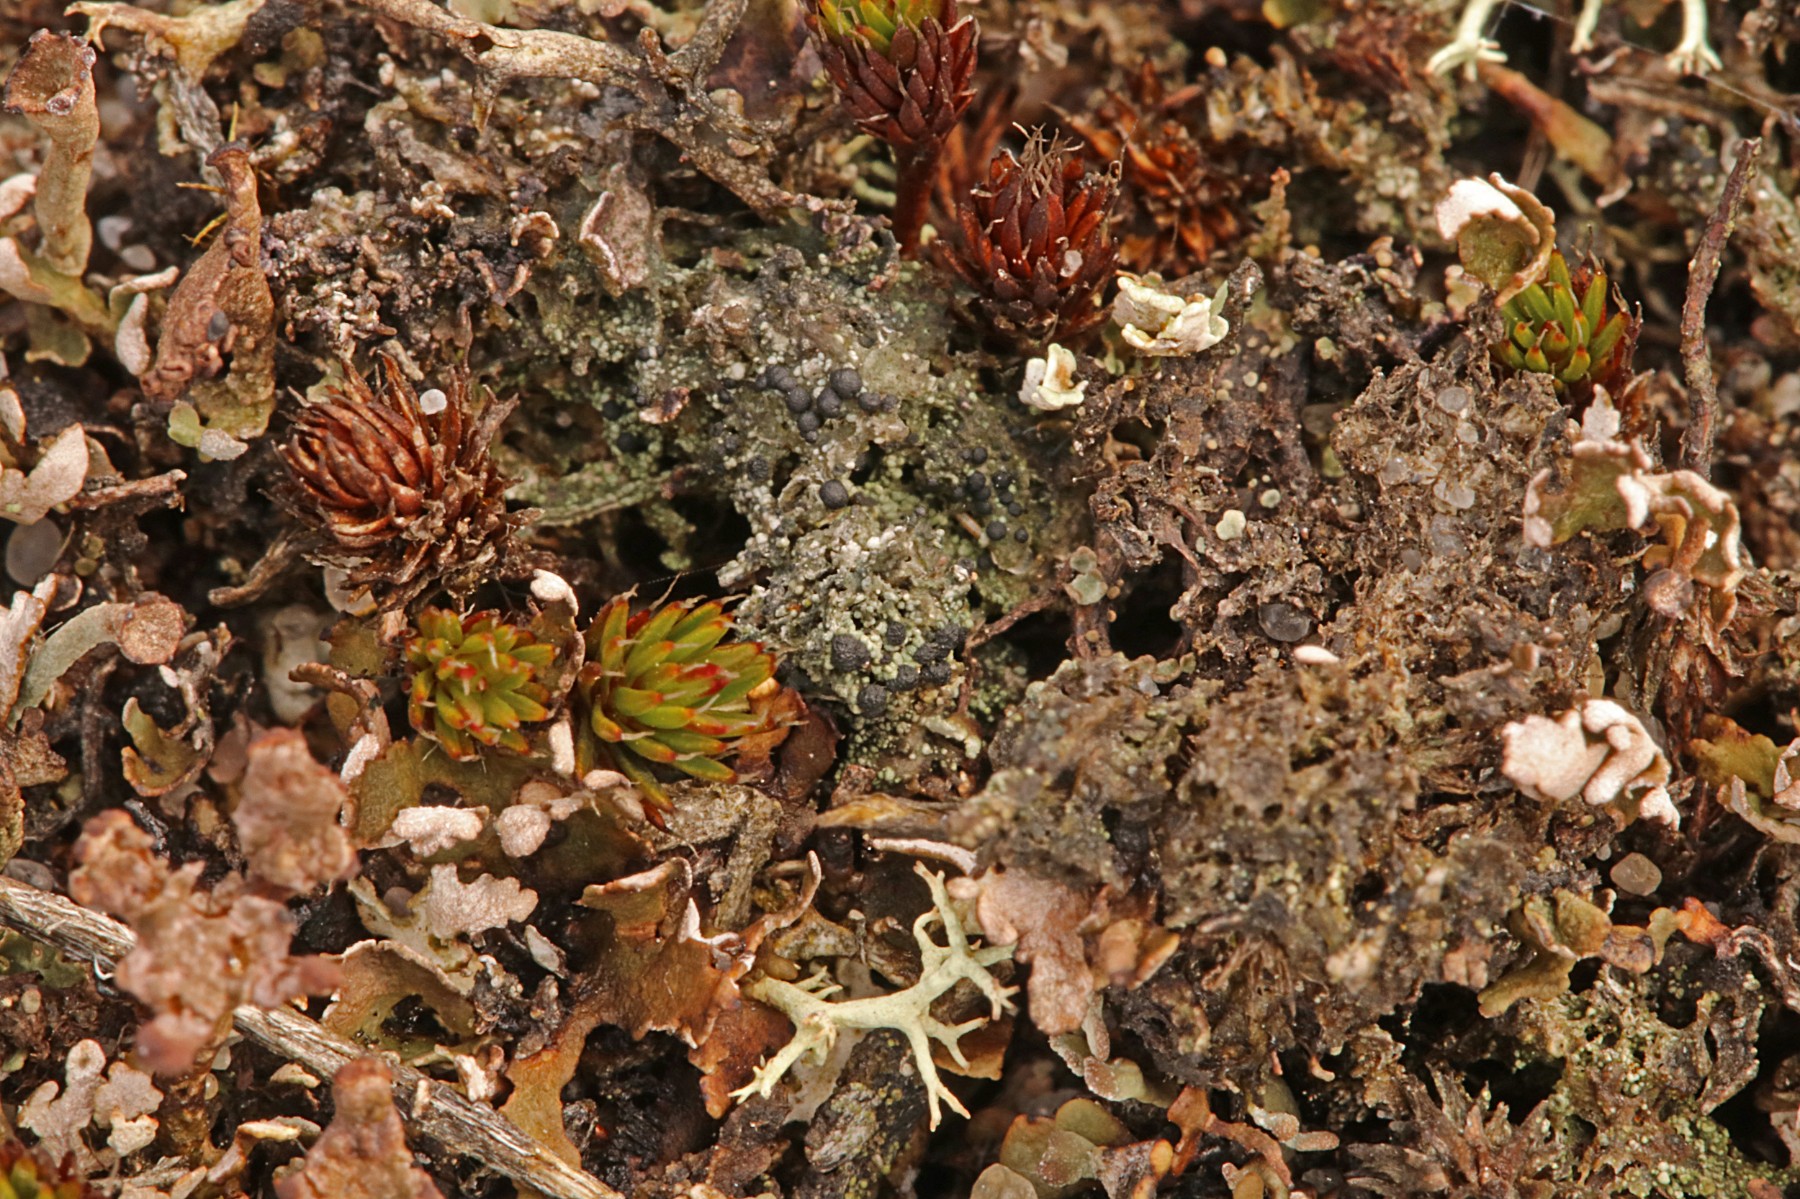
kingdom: Fungi
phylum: Ascomycota
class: Lecanoromycetes
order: Lecanorales
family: Byssolomataceae
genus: Micarea
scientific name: Micarea lignaria
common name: tørve-knaplav
